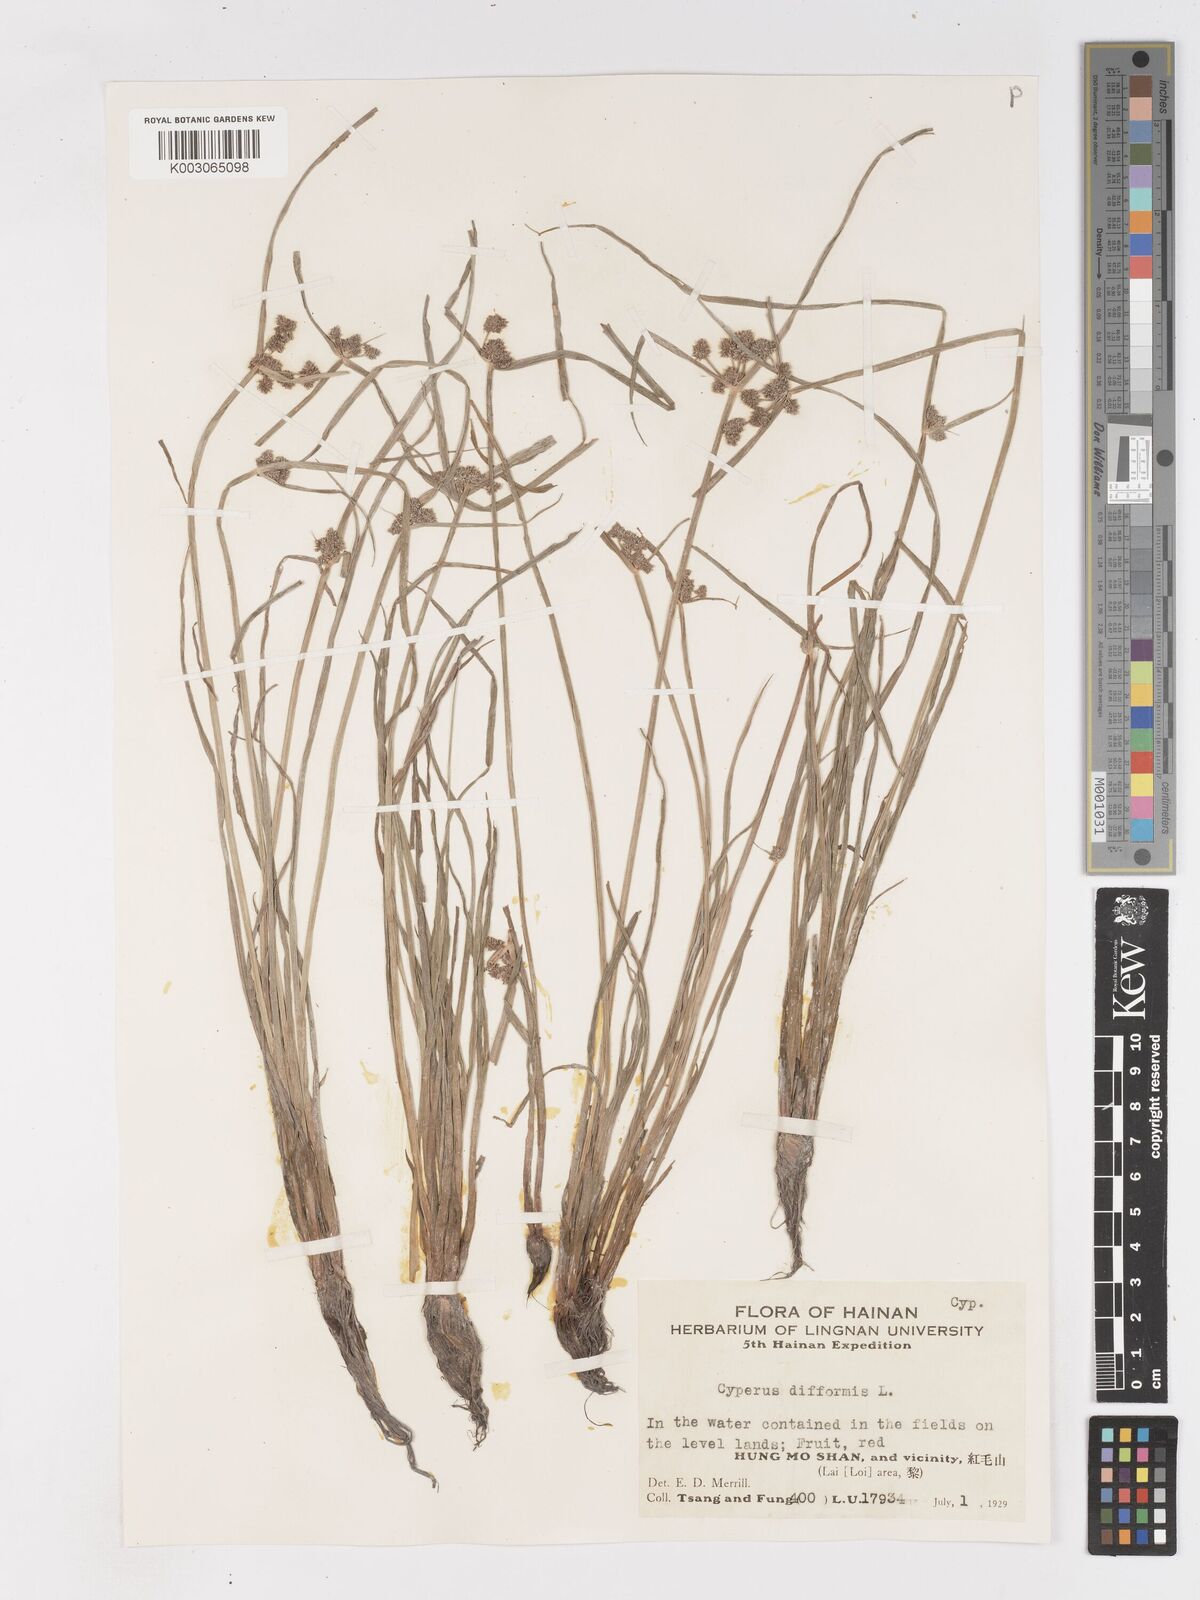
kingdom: Plantae
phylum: Tracheophyta
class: Liliopsida
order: Poales
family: Cyperaceae
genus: Cyperus
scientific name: Cyperus difformis
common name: Variable flatsedge
